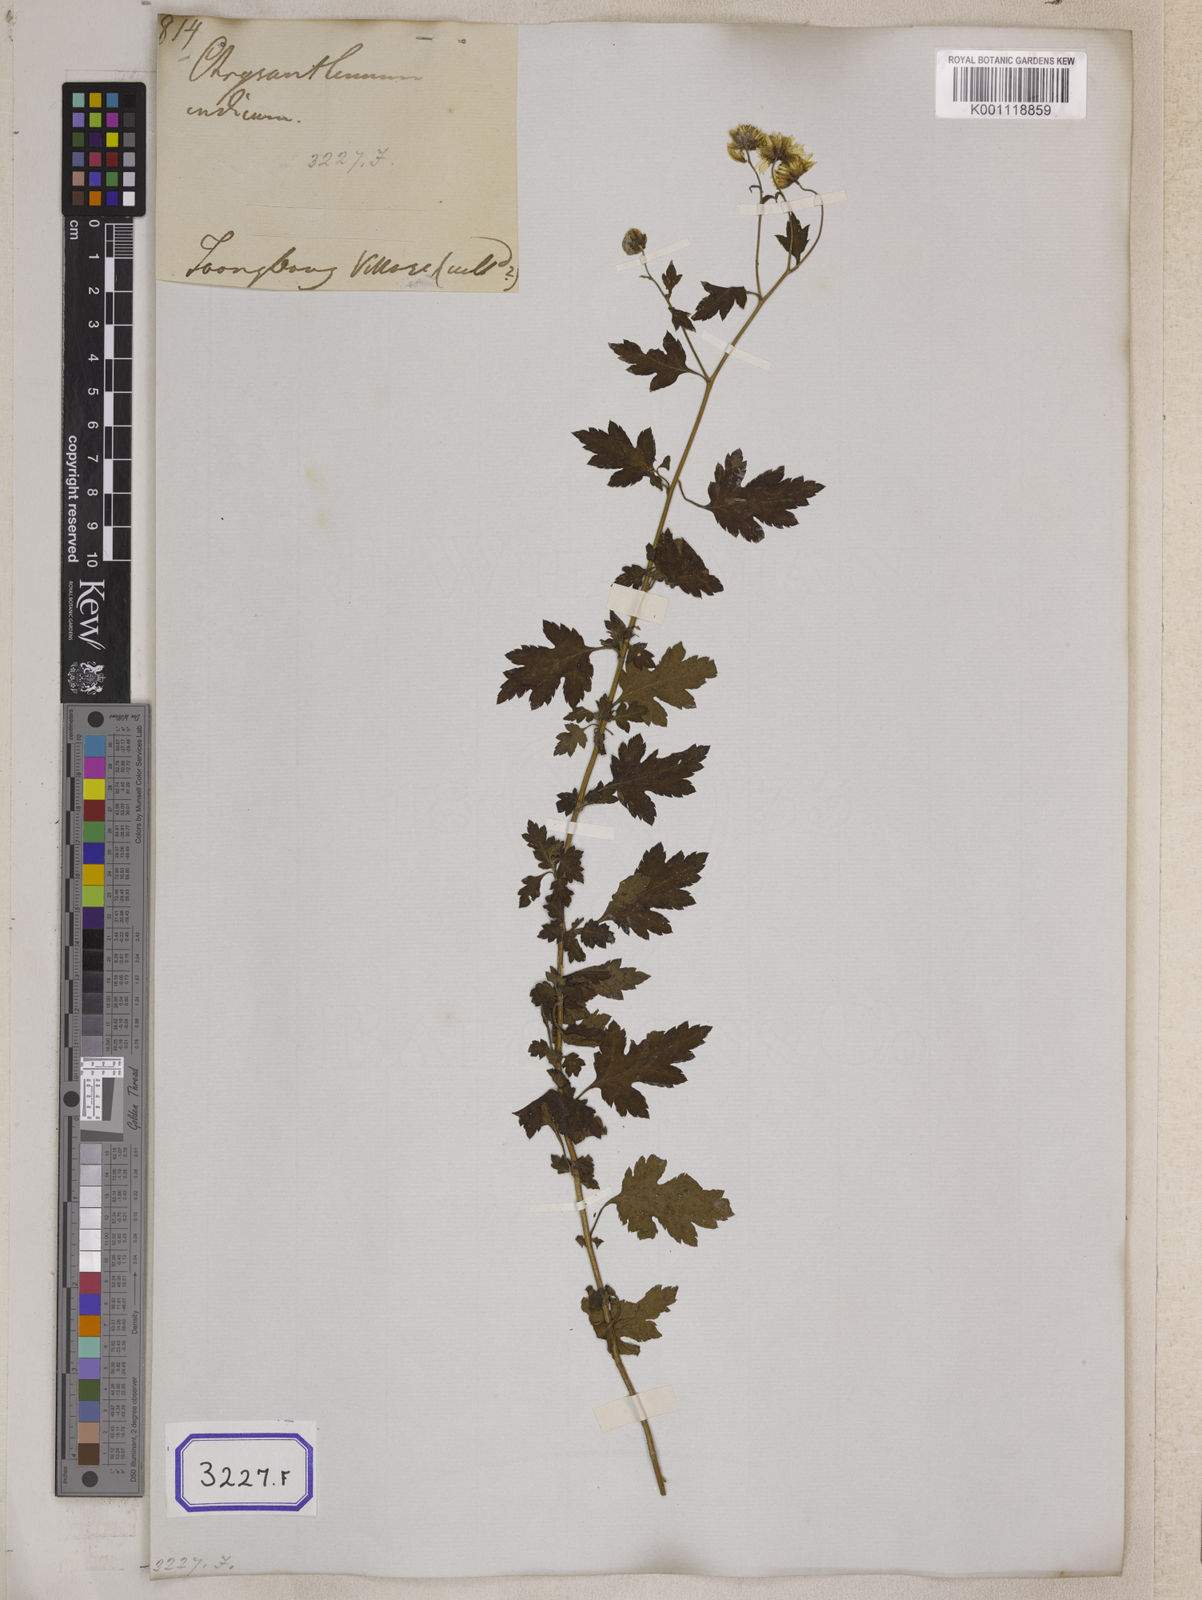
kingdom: Plantae
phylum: Tracheophyta
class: Magnoliopsida
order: Asterales
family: Asteraceae
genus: Chrysanthemum
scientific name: Chrysanthemum indicum
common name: Indian chrysanthemum
